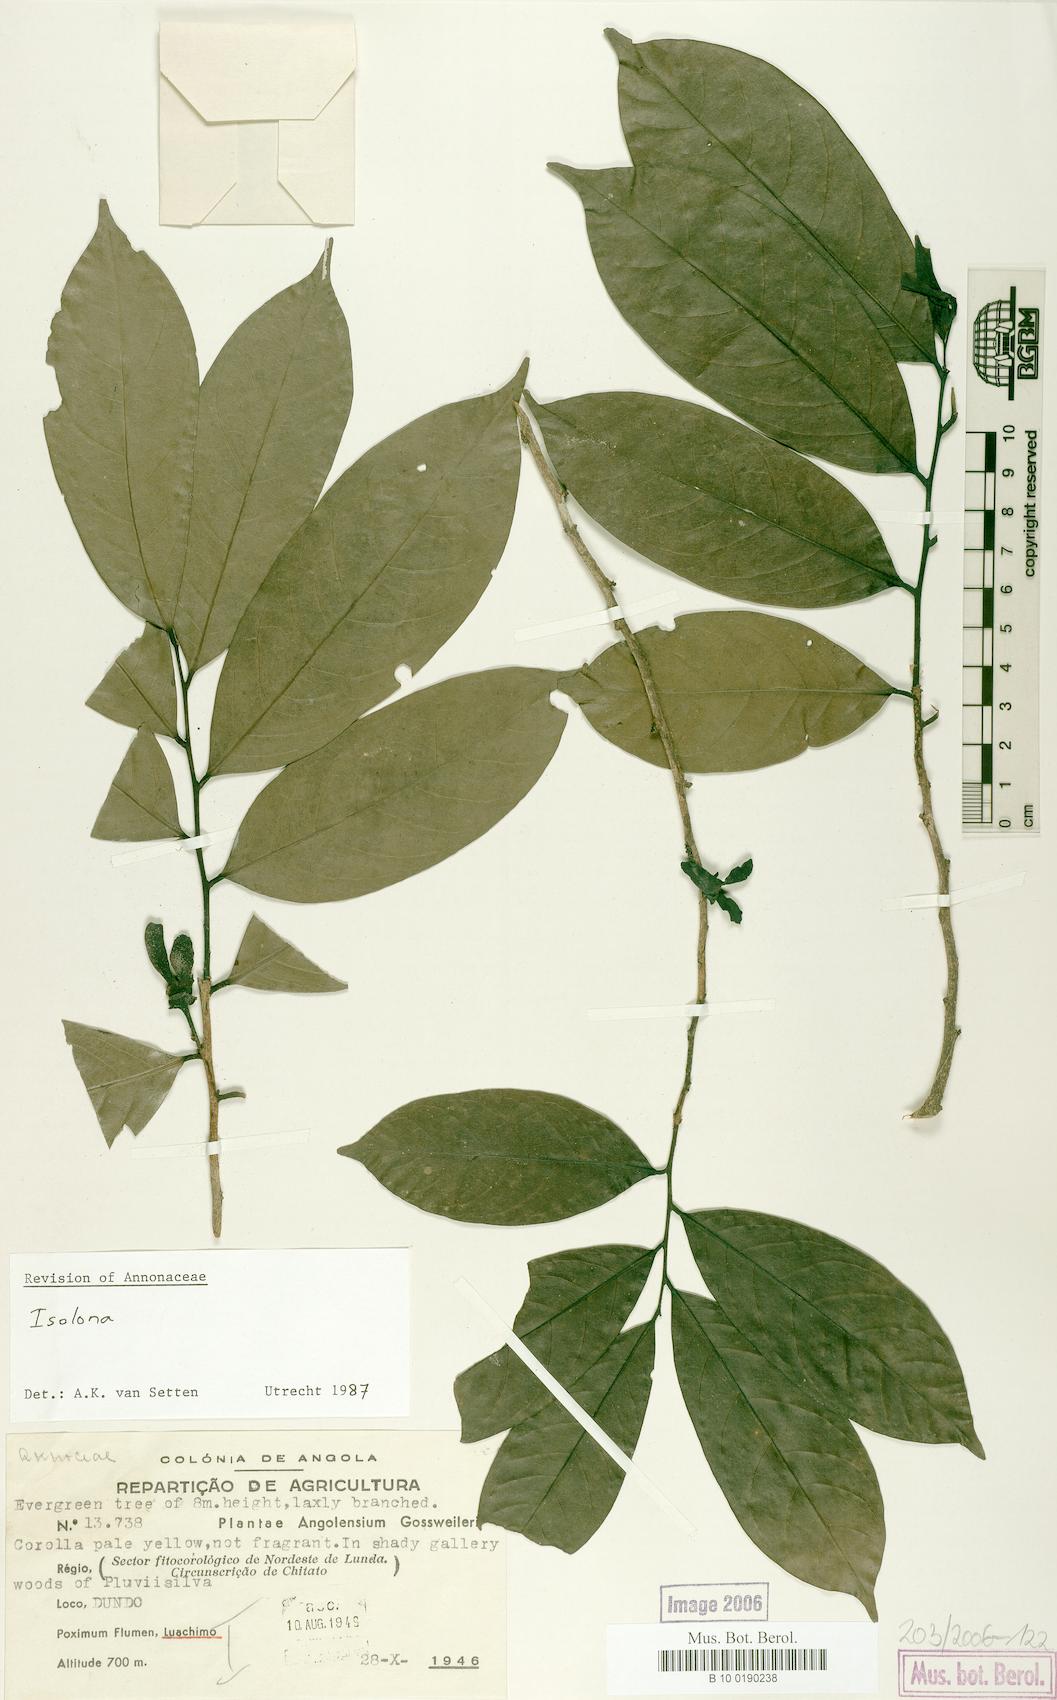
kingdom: Plantae
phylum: Tracheophyta
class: Magnoliopsida
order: Magnoliales
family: Annonaceae
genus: Isolona
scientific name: Isolona
